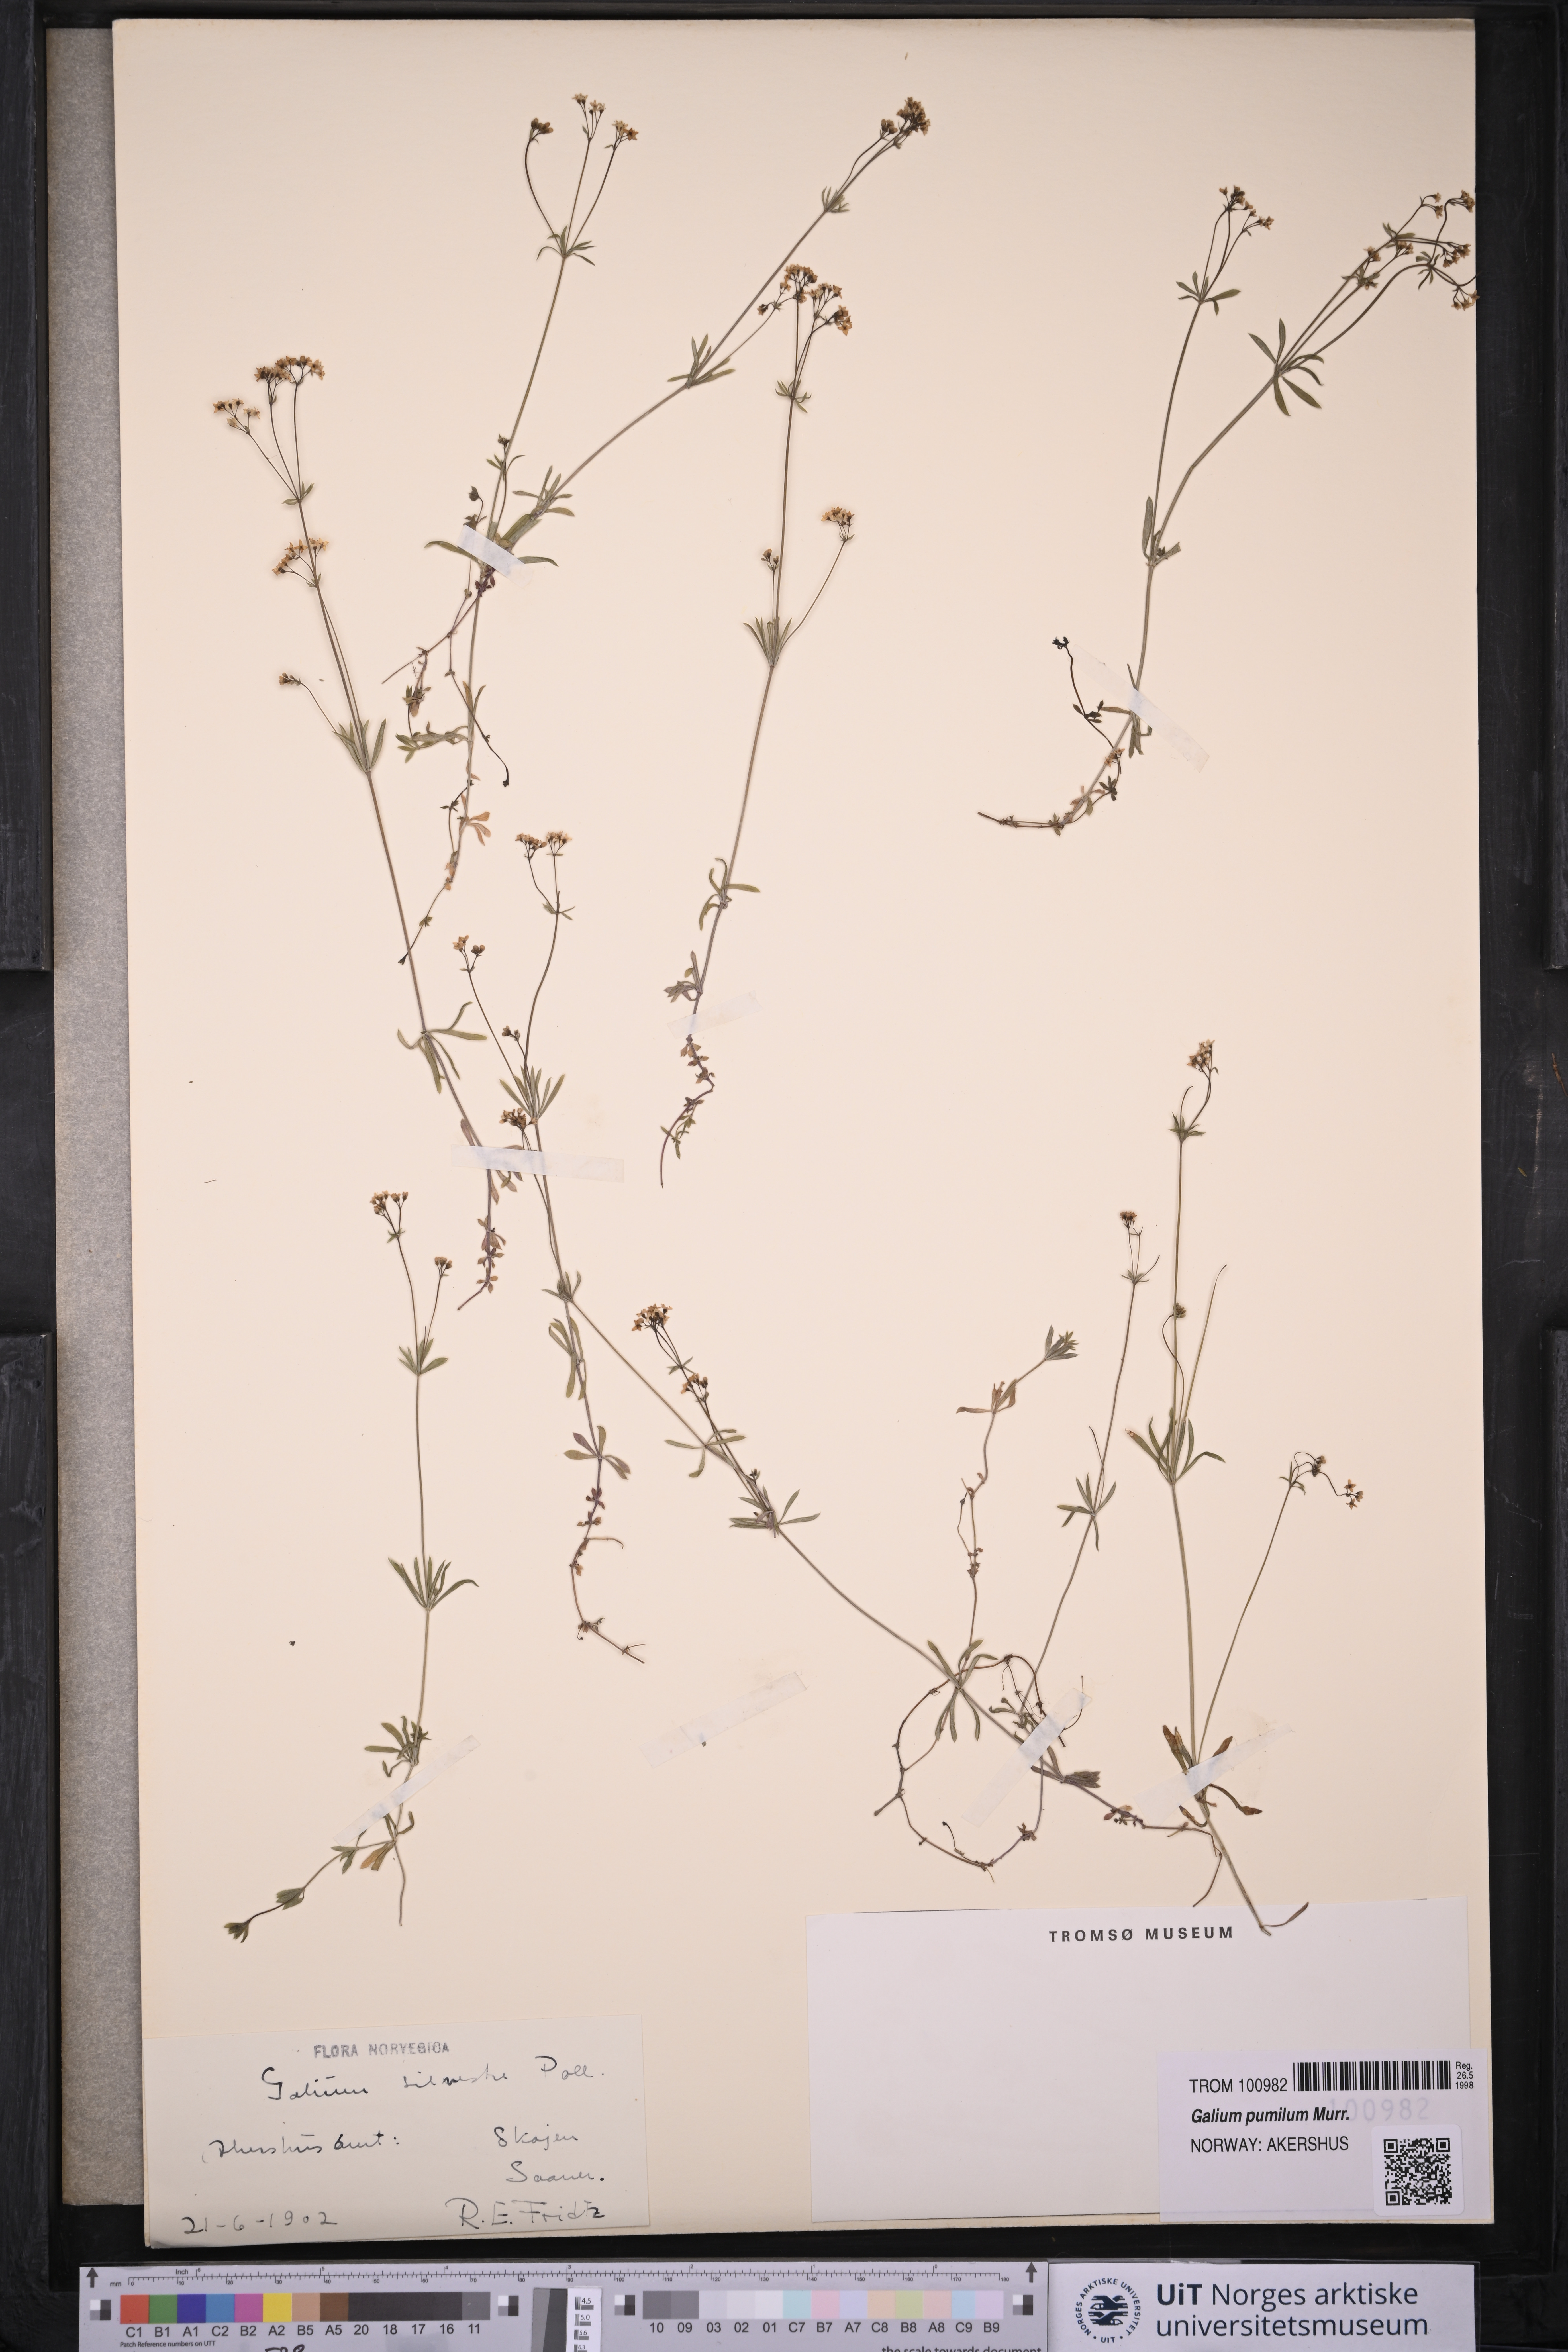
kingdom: Plantae
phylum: Tracheophyta
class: Magnoliopsida
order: Gentianales
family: Rubiaceae
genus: Galium
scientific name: Galium pumilum
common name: Slender bedstraw
